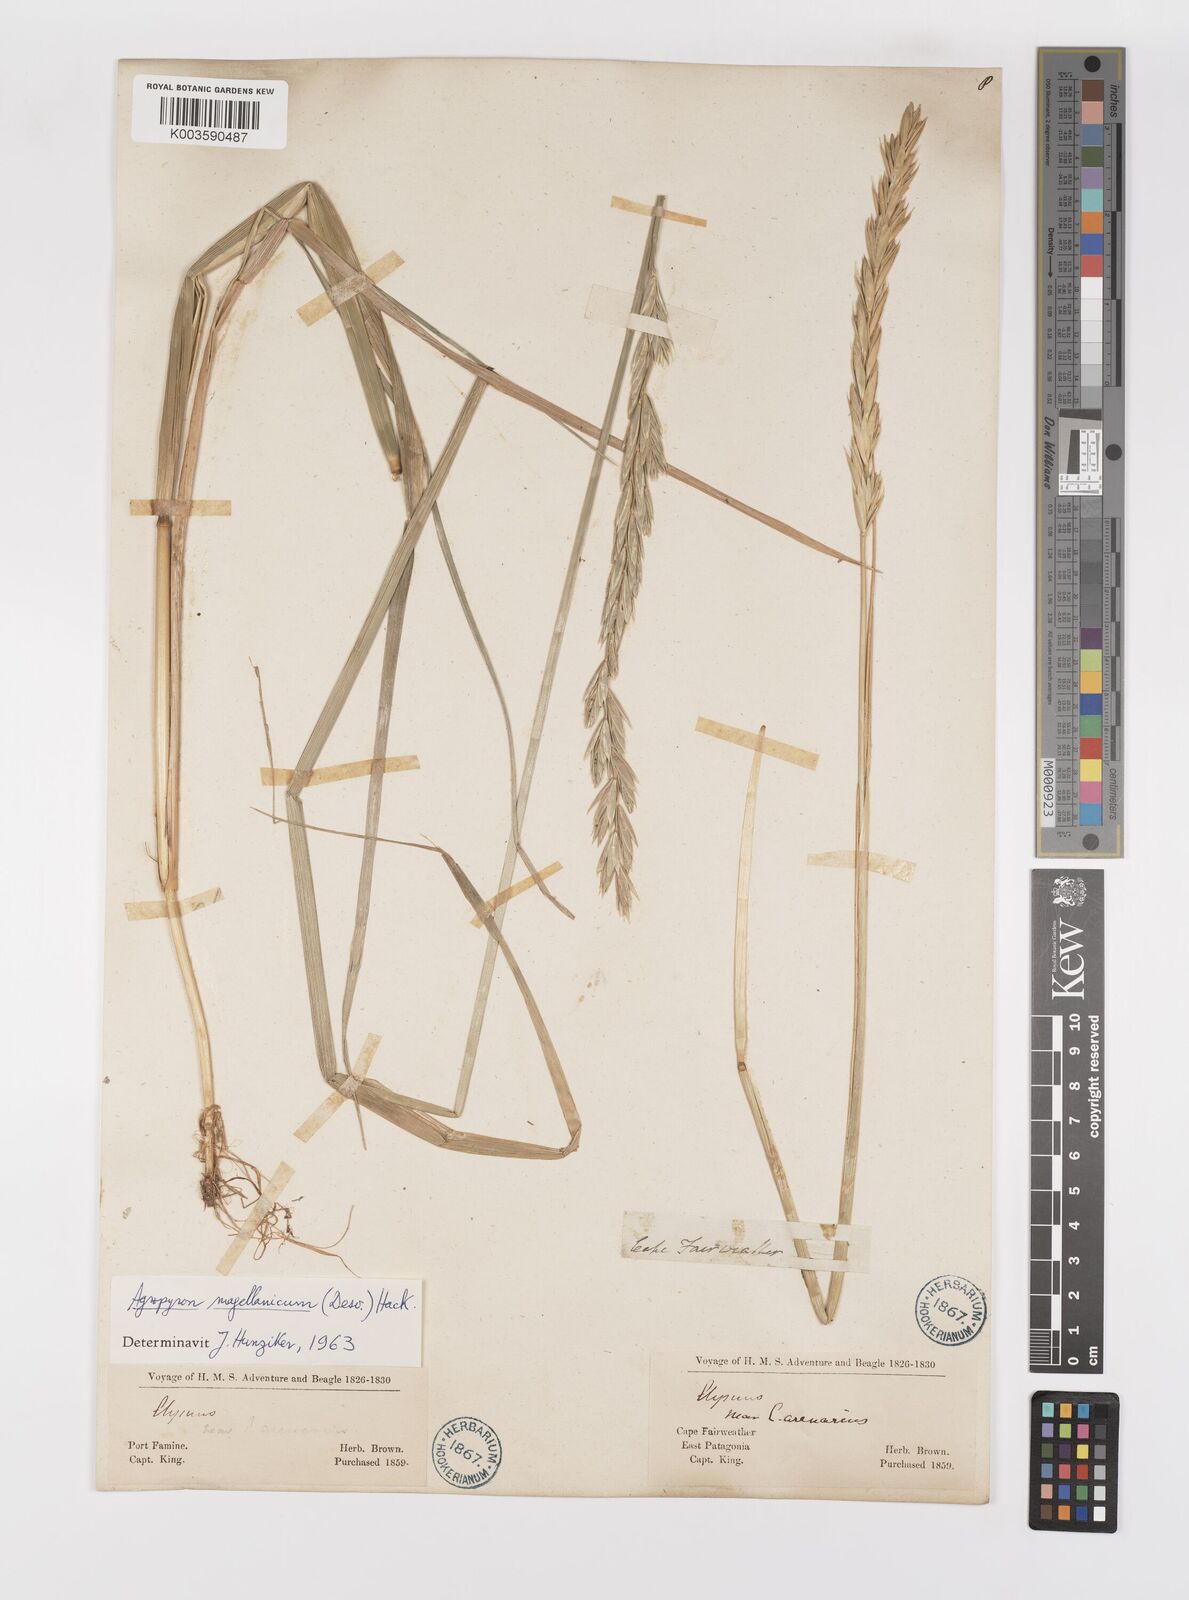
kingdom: Plantae
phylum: Tracheophyta
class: Liliopsida
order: Poales
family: Poaceae
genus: Elymus
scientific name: Elymus magellanicus
